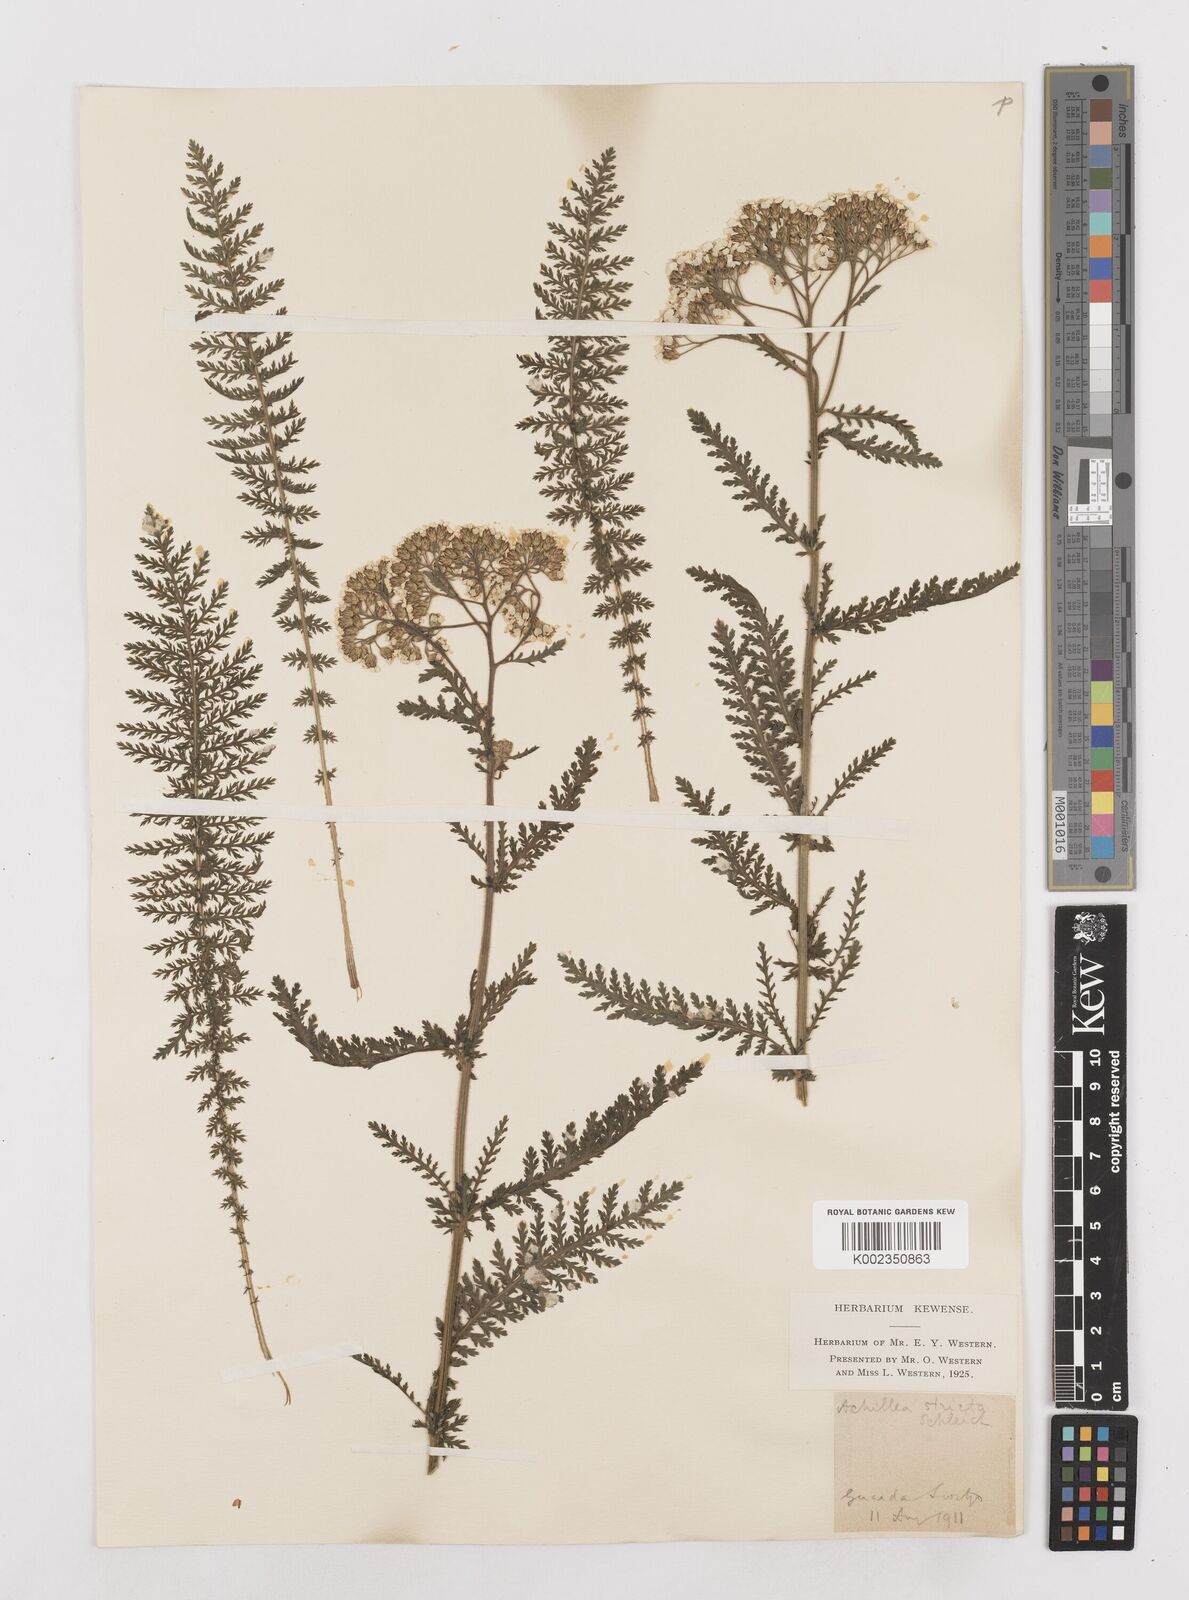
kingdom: Plantae
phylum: Tracheophyta
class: Magnoliopsida
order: Asterales
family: Asteraceae
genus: Achillea
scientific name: Achillea distans
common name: Tall yarrow
